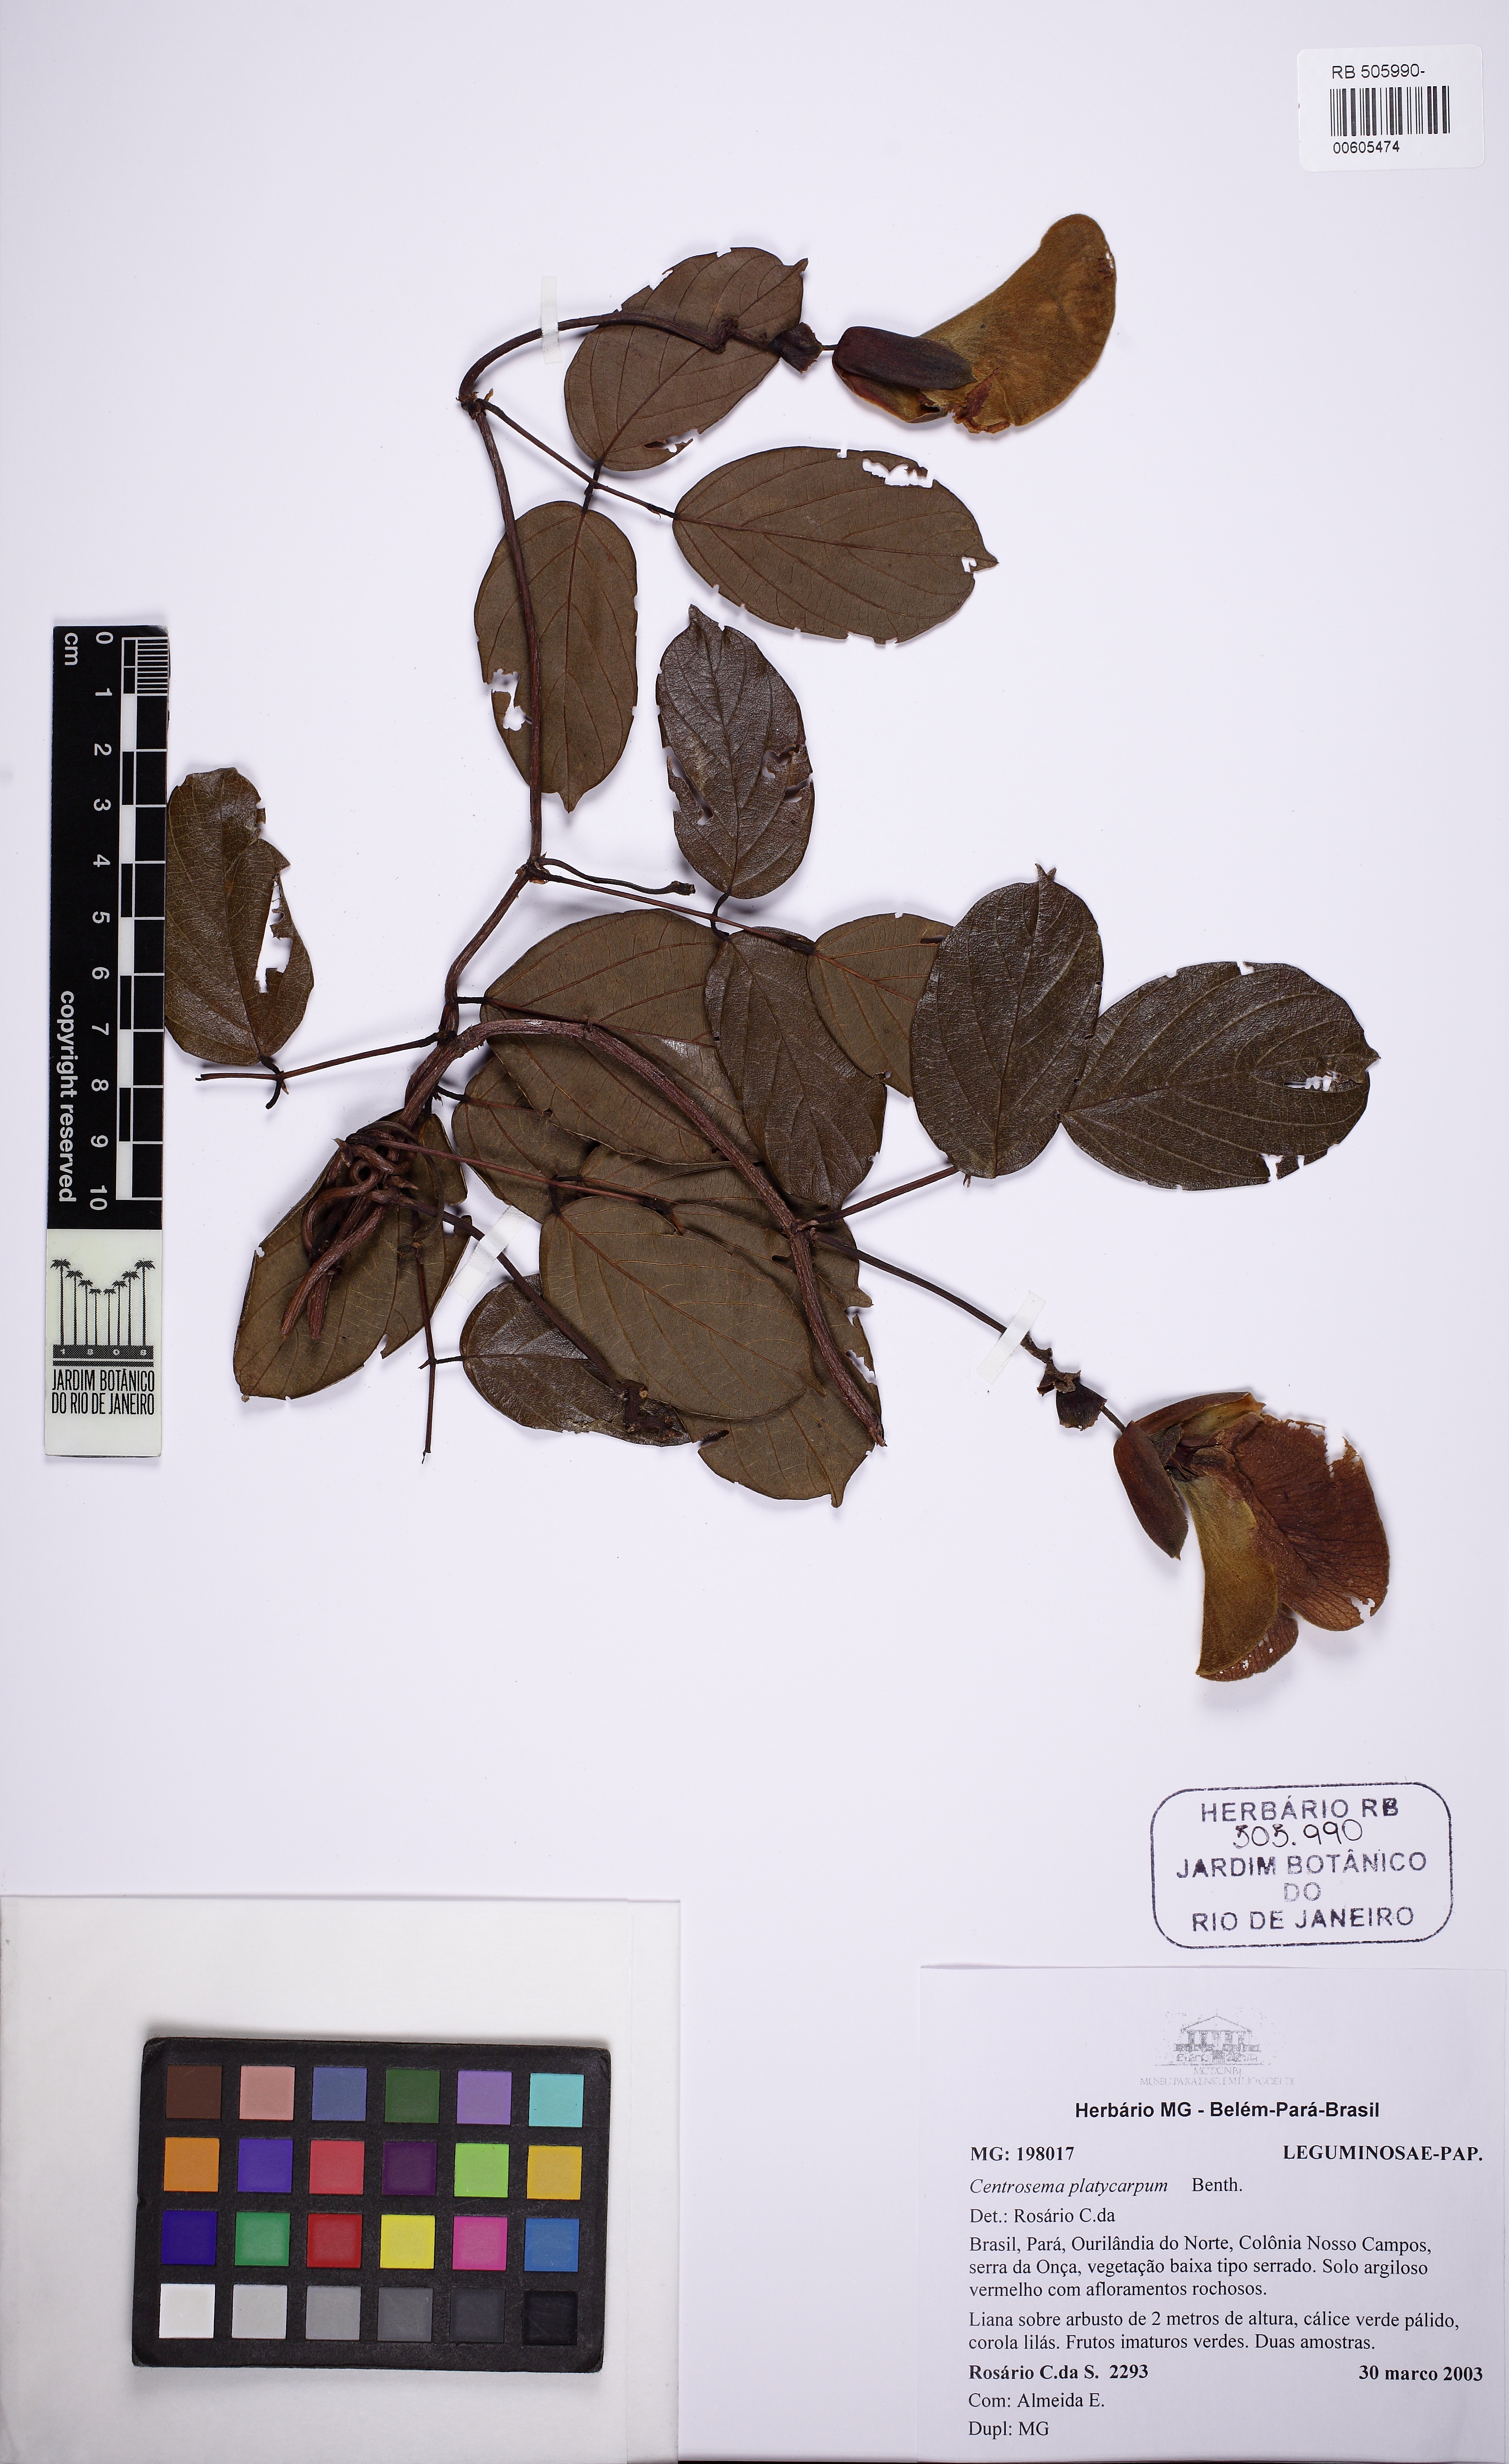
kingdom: Plantae
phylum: Tracheophyta
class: Magnoliopsida
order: Fabales
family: Fabaceae
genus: Centrosema
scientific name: Centrosema platycarpum
